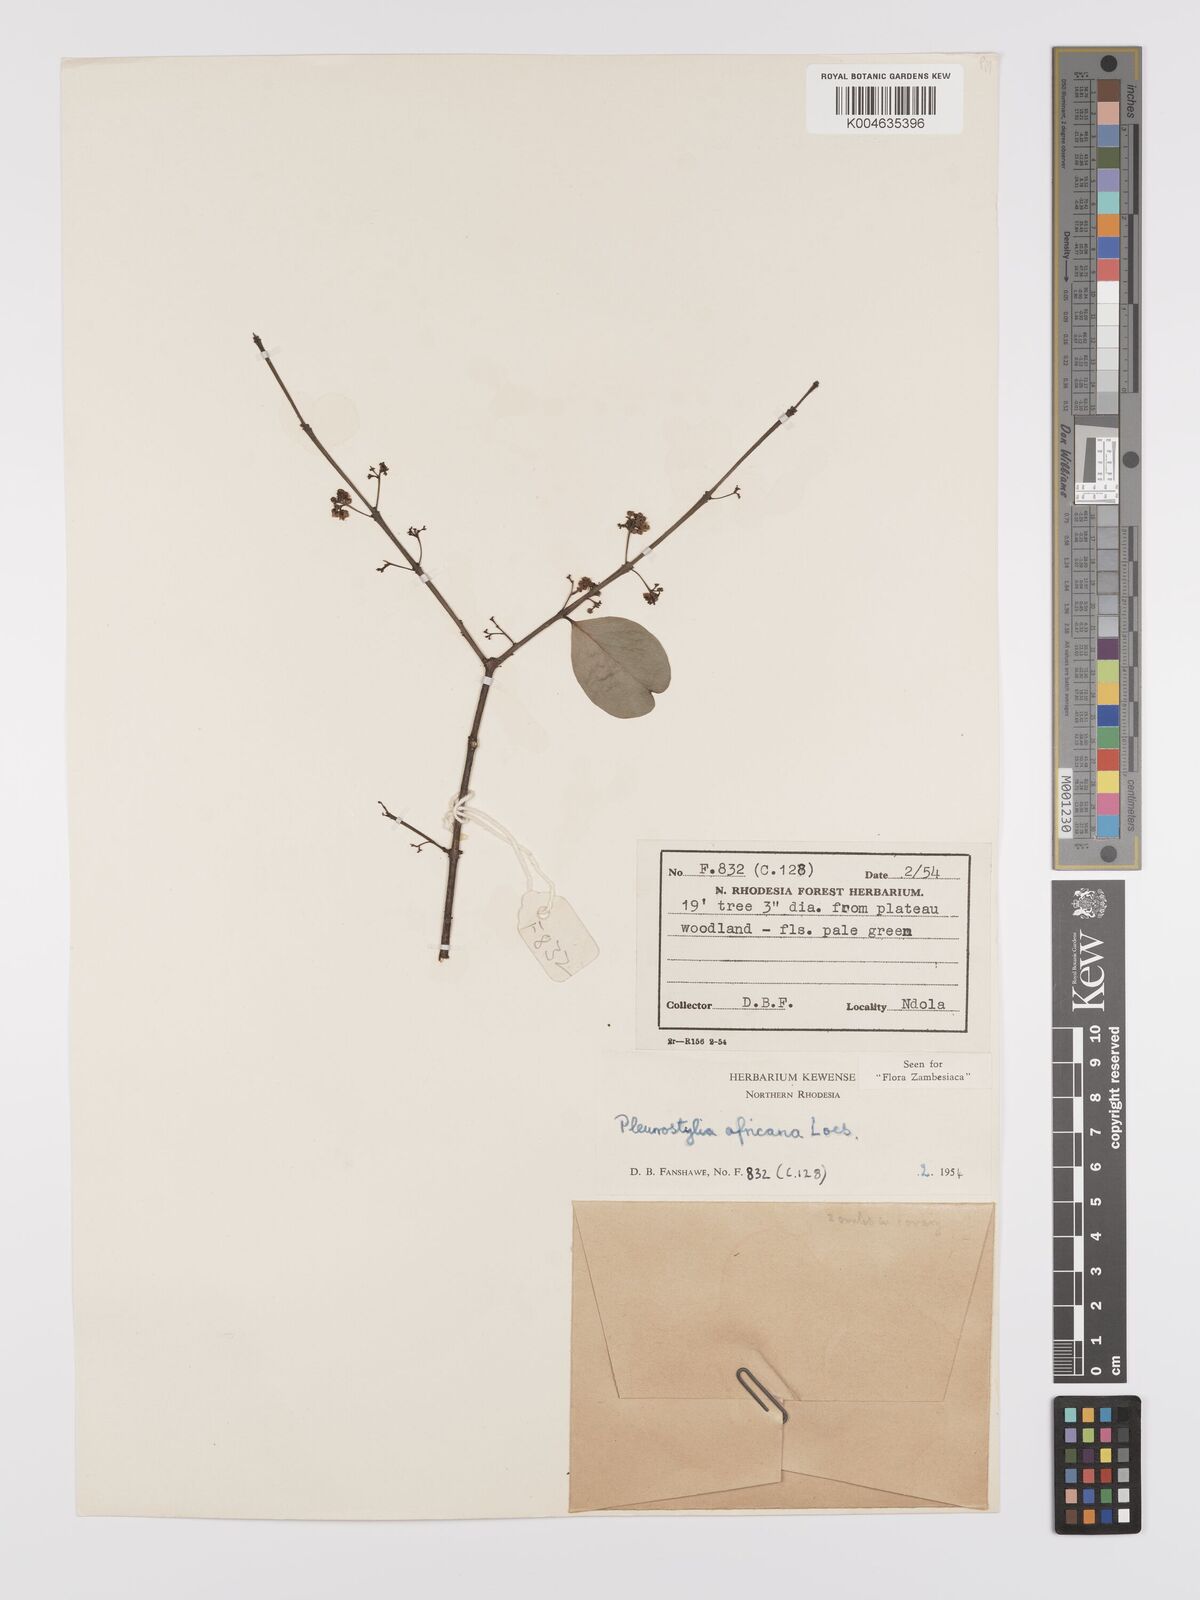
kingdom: Plantae
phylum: Tracheophyta
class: Magnoliopsida
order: Celastrales
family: Celastraceae
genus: Pleurostylia
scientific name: Pleurostylia africana
